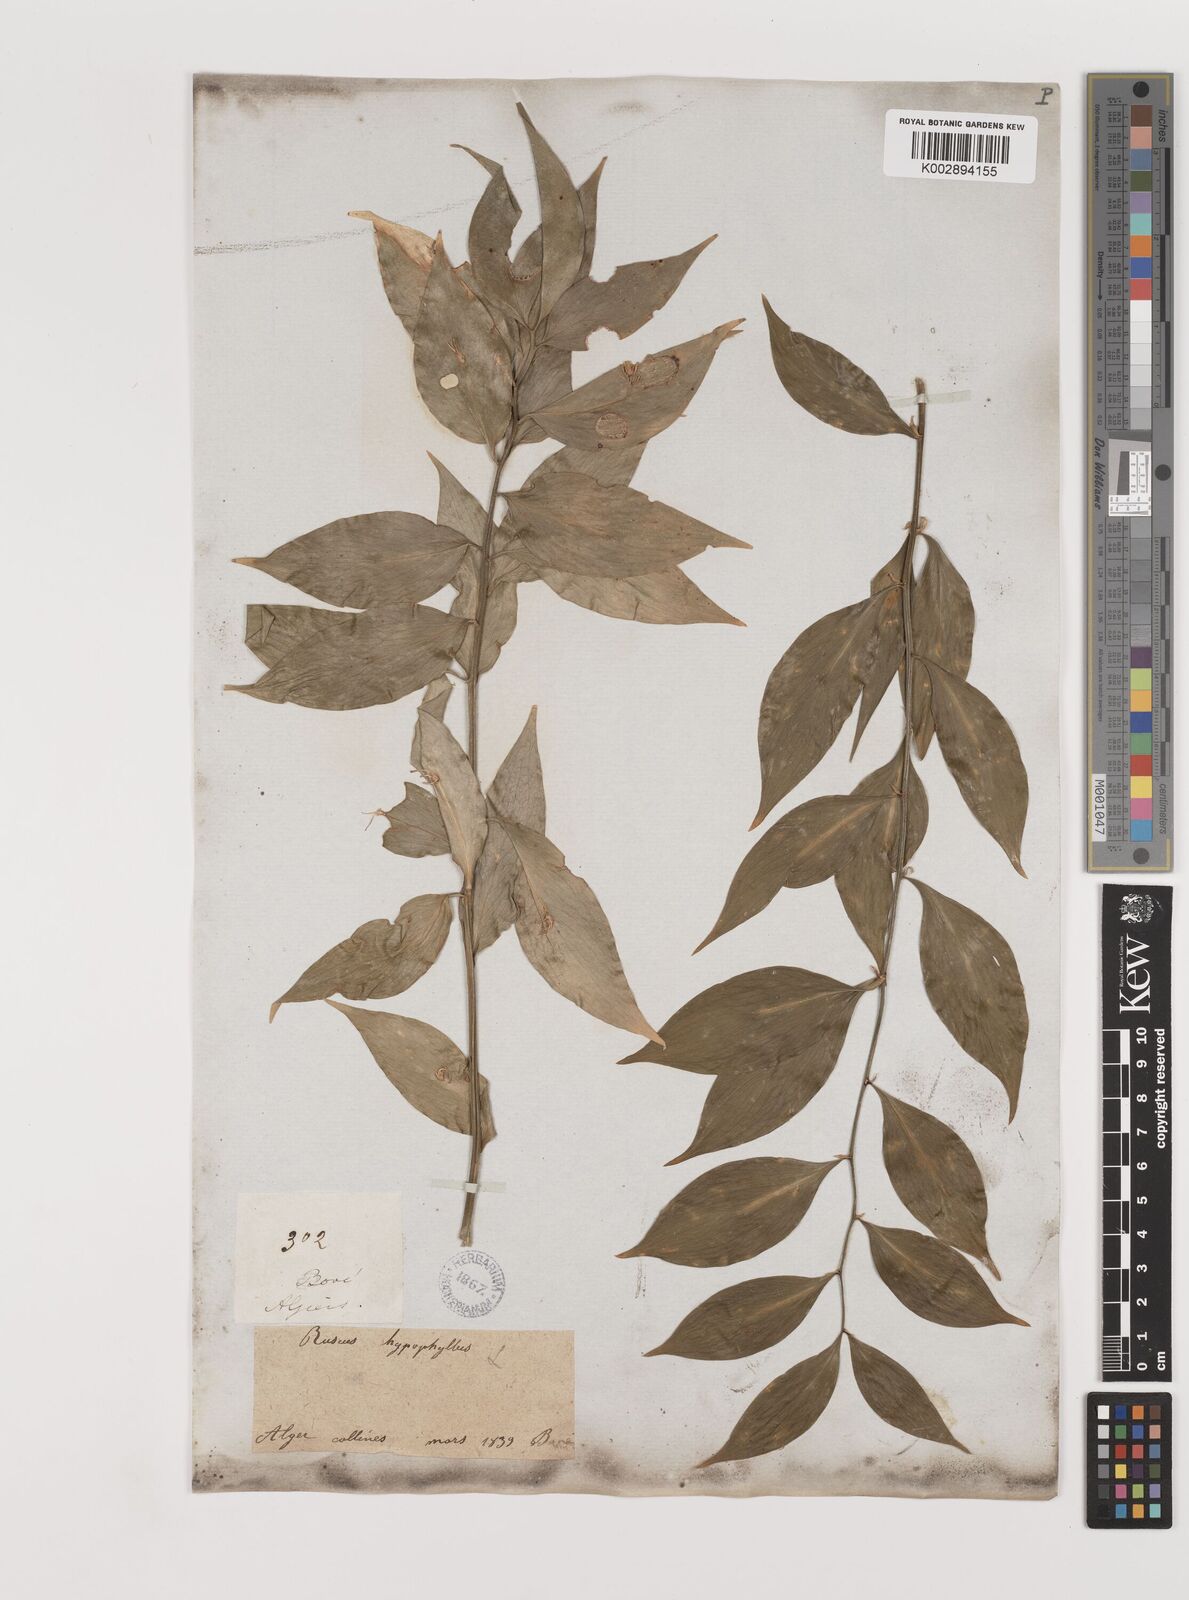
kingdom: Plantae
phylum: Tracheophyta
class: Liliopsida
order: Asparagales
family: Asparagaceae
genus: Ruscus
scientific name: Ruscus hypophyllum
